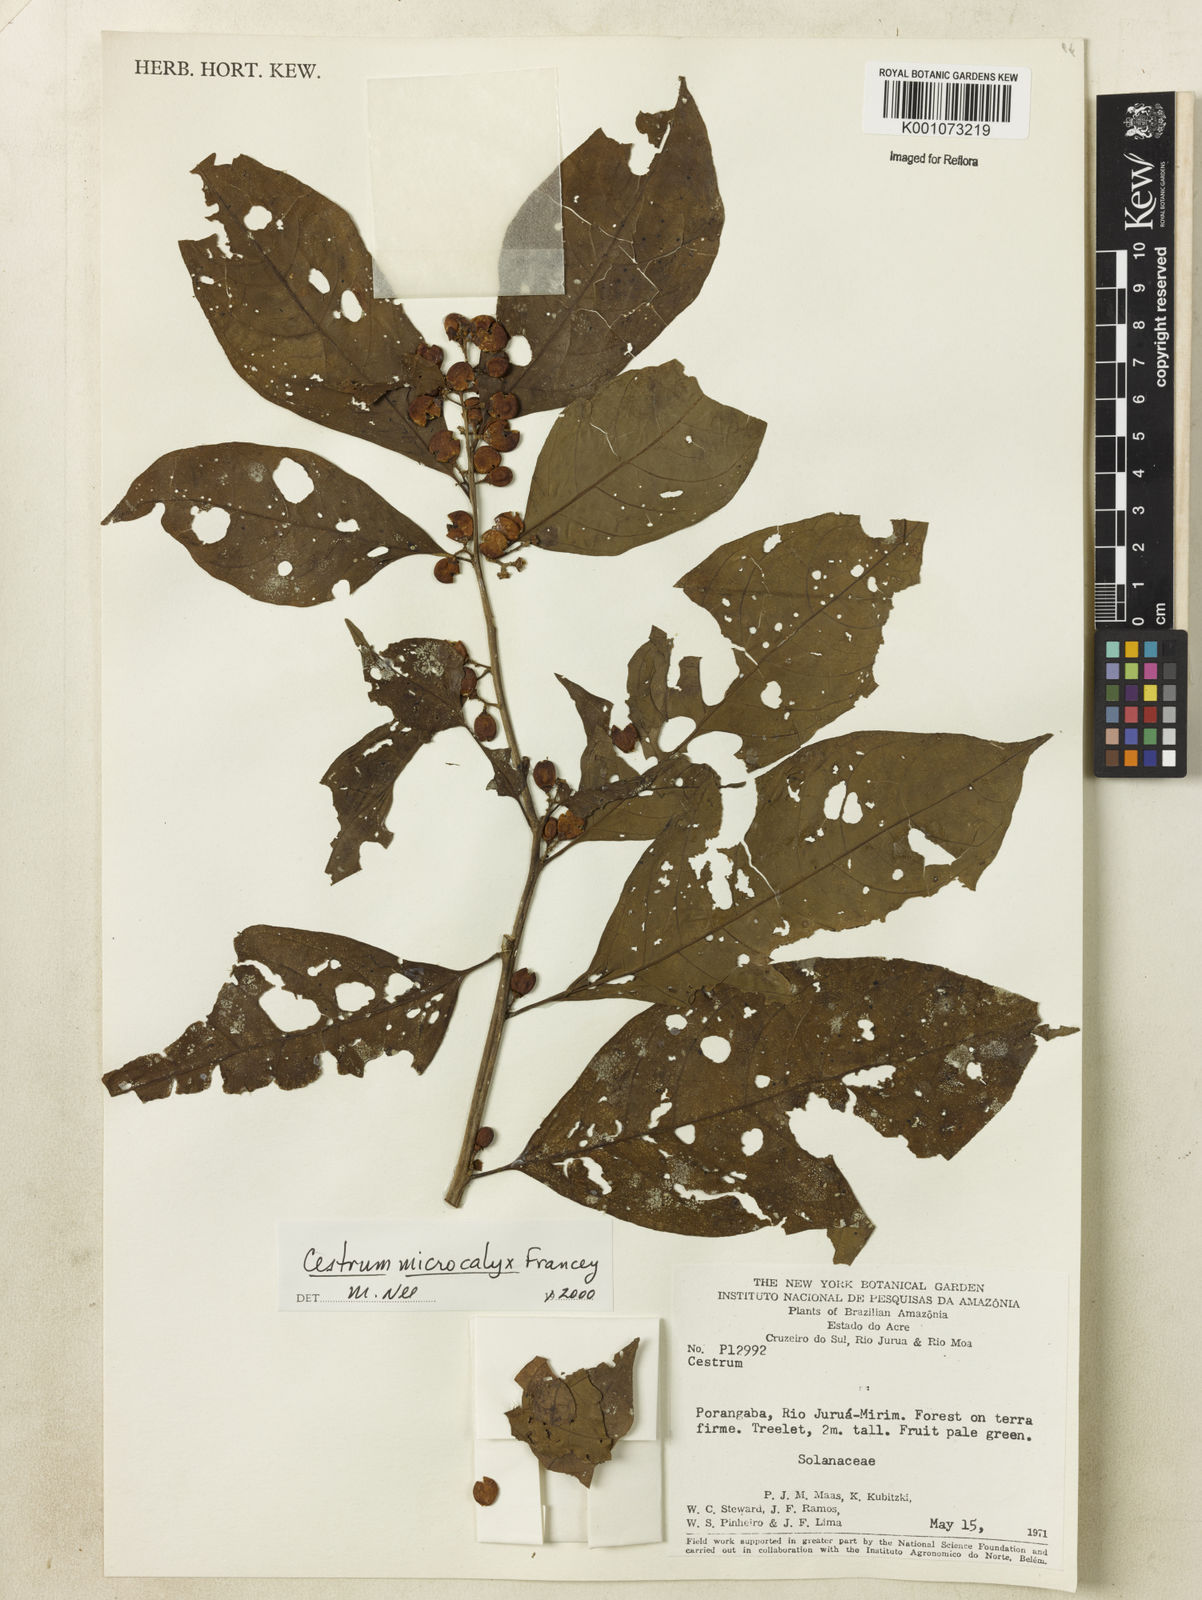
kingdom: Plantae
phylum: Tracheophyta
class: Magnoliopsida
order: Solanales
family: Solanaceae
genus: Cestrum
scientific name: Cestrum microcalyx
